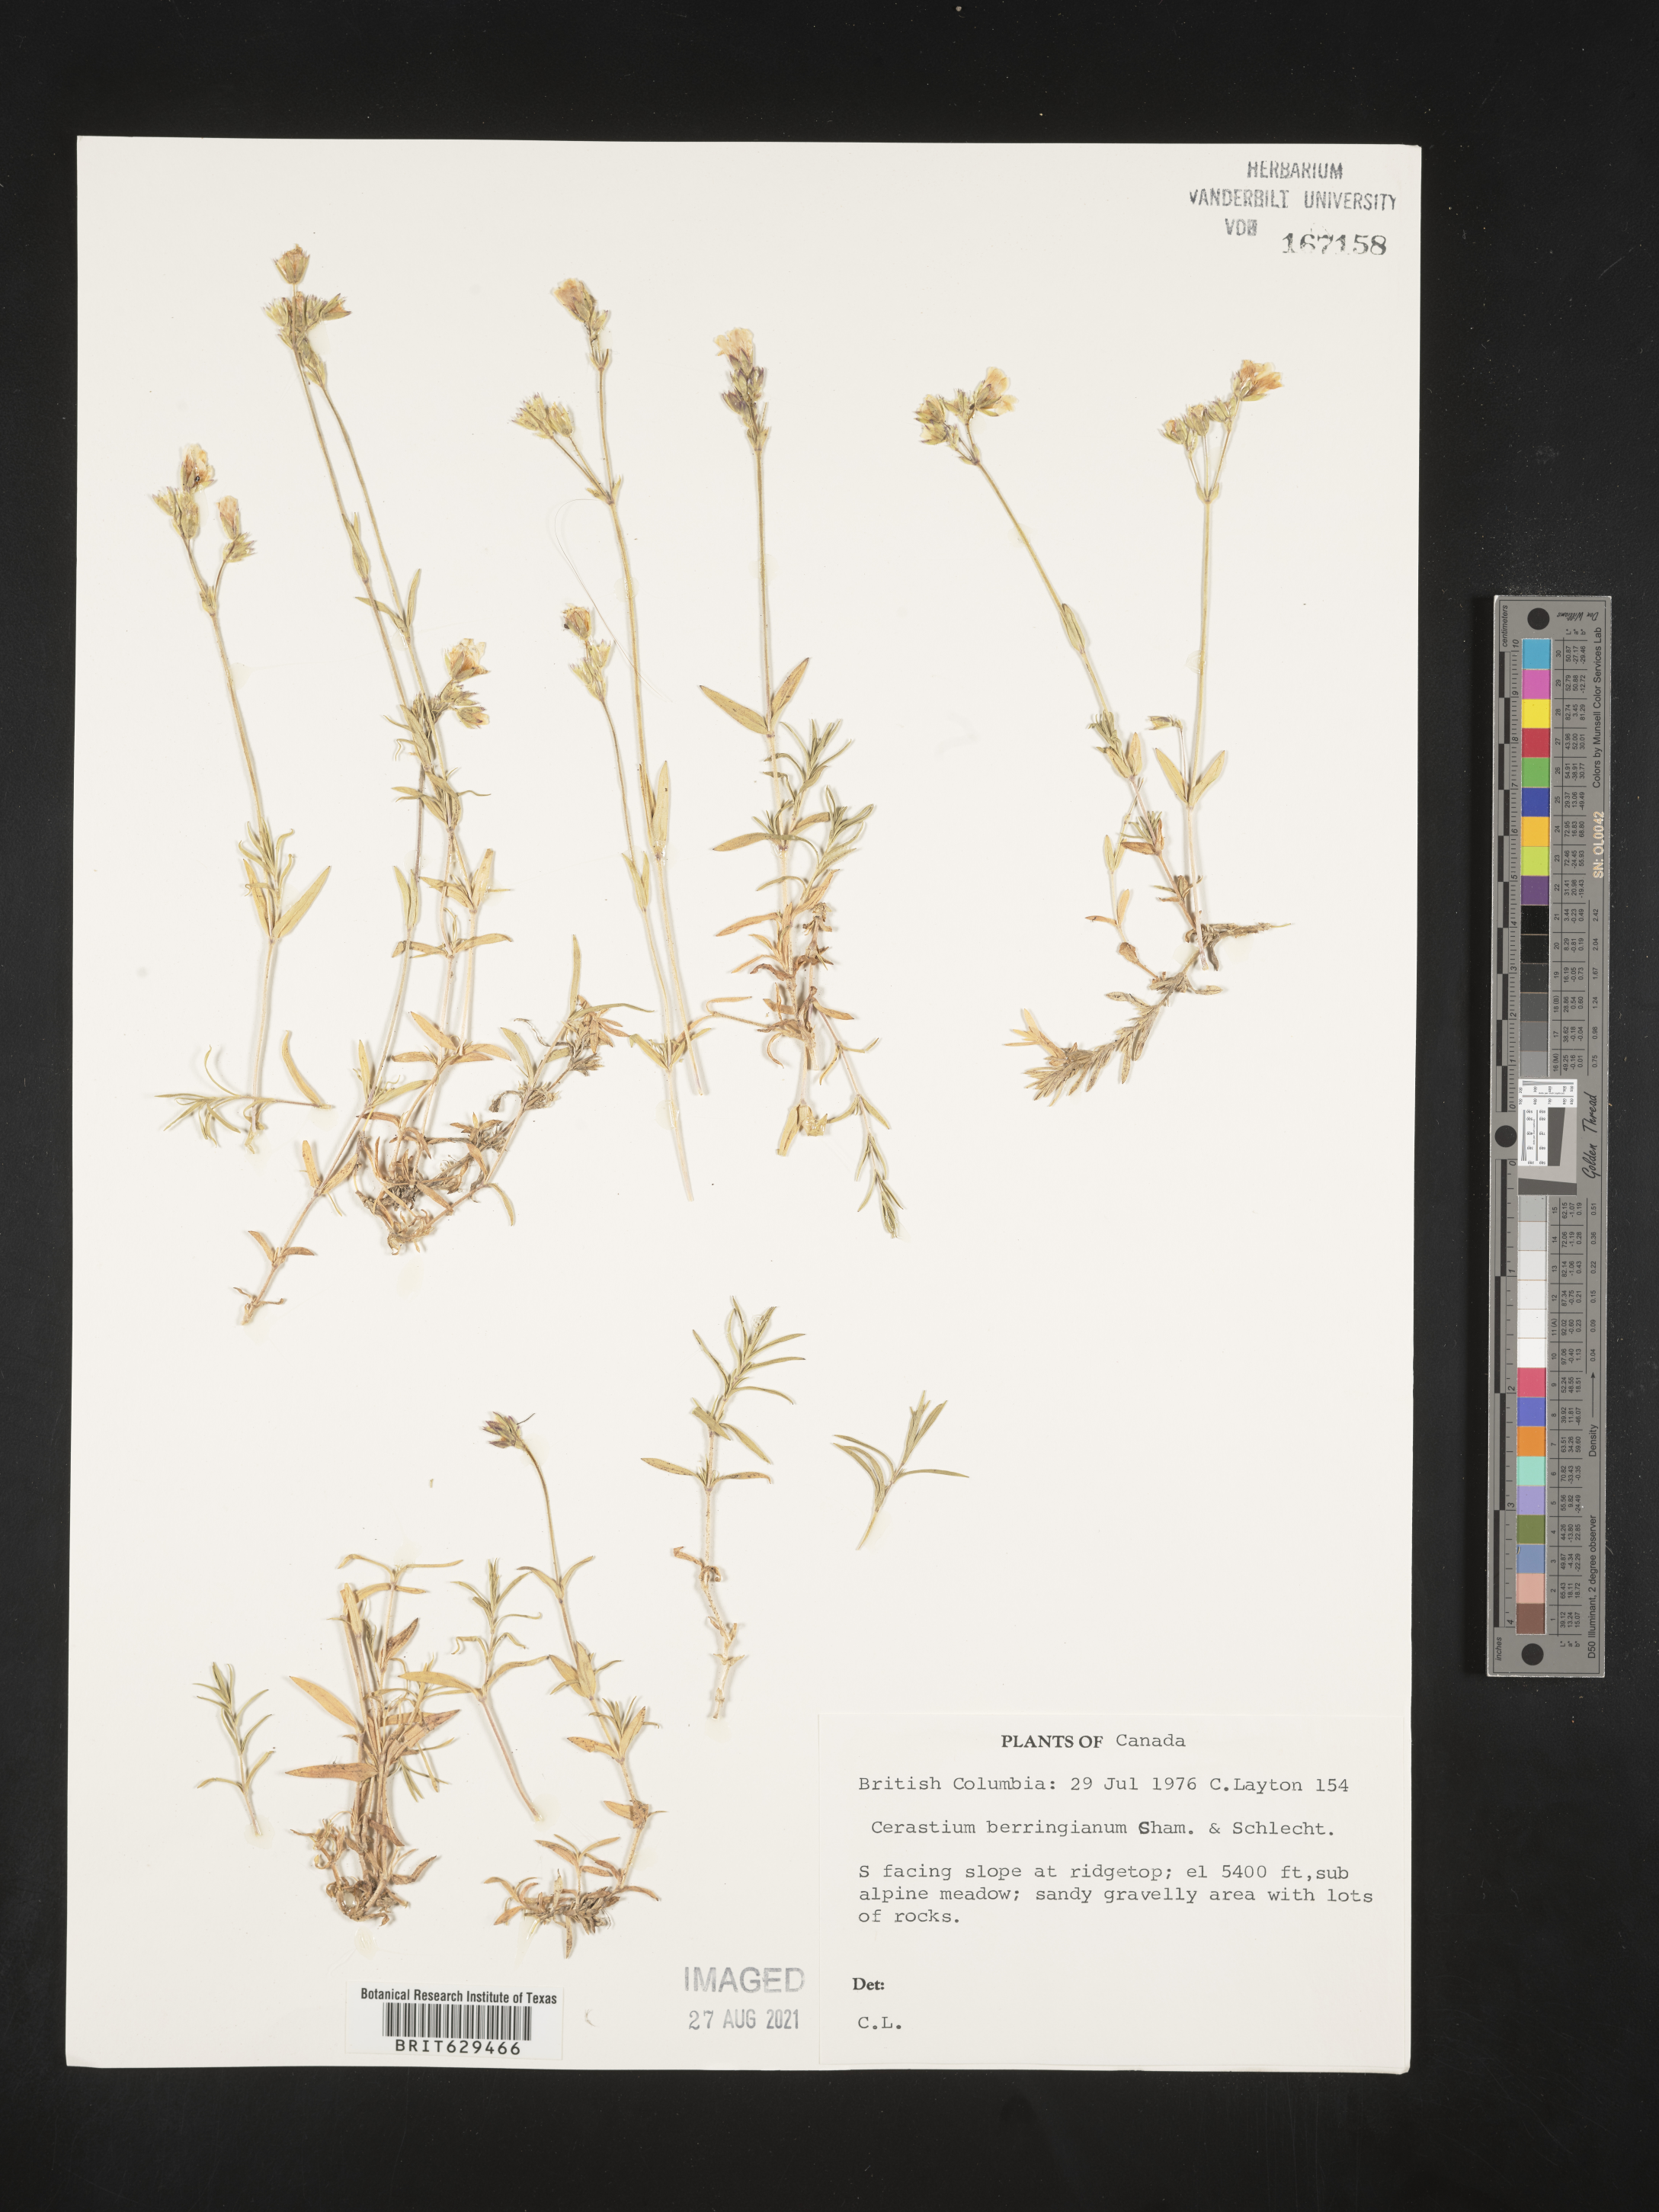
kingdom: Plantae
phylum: Tracheophyta
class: Magnoliopsida
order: Caryophyllales
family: Caryophyllaceae
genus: Cerastium
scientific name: Cerastium beeringianum
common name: Bering mouse-ear chickweed
